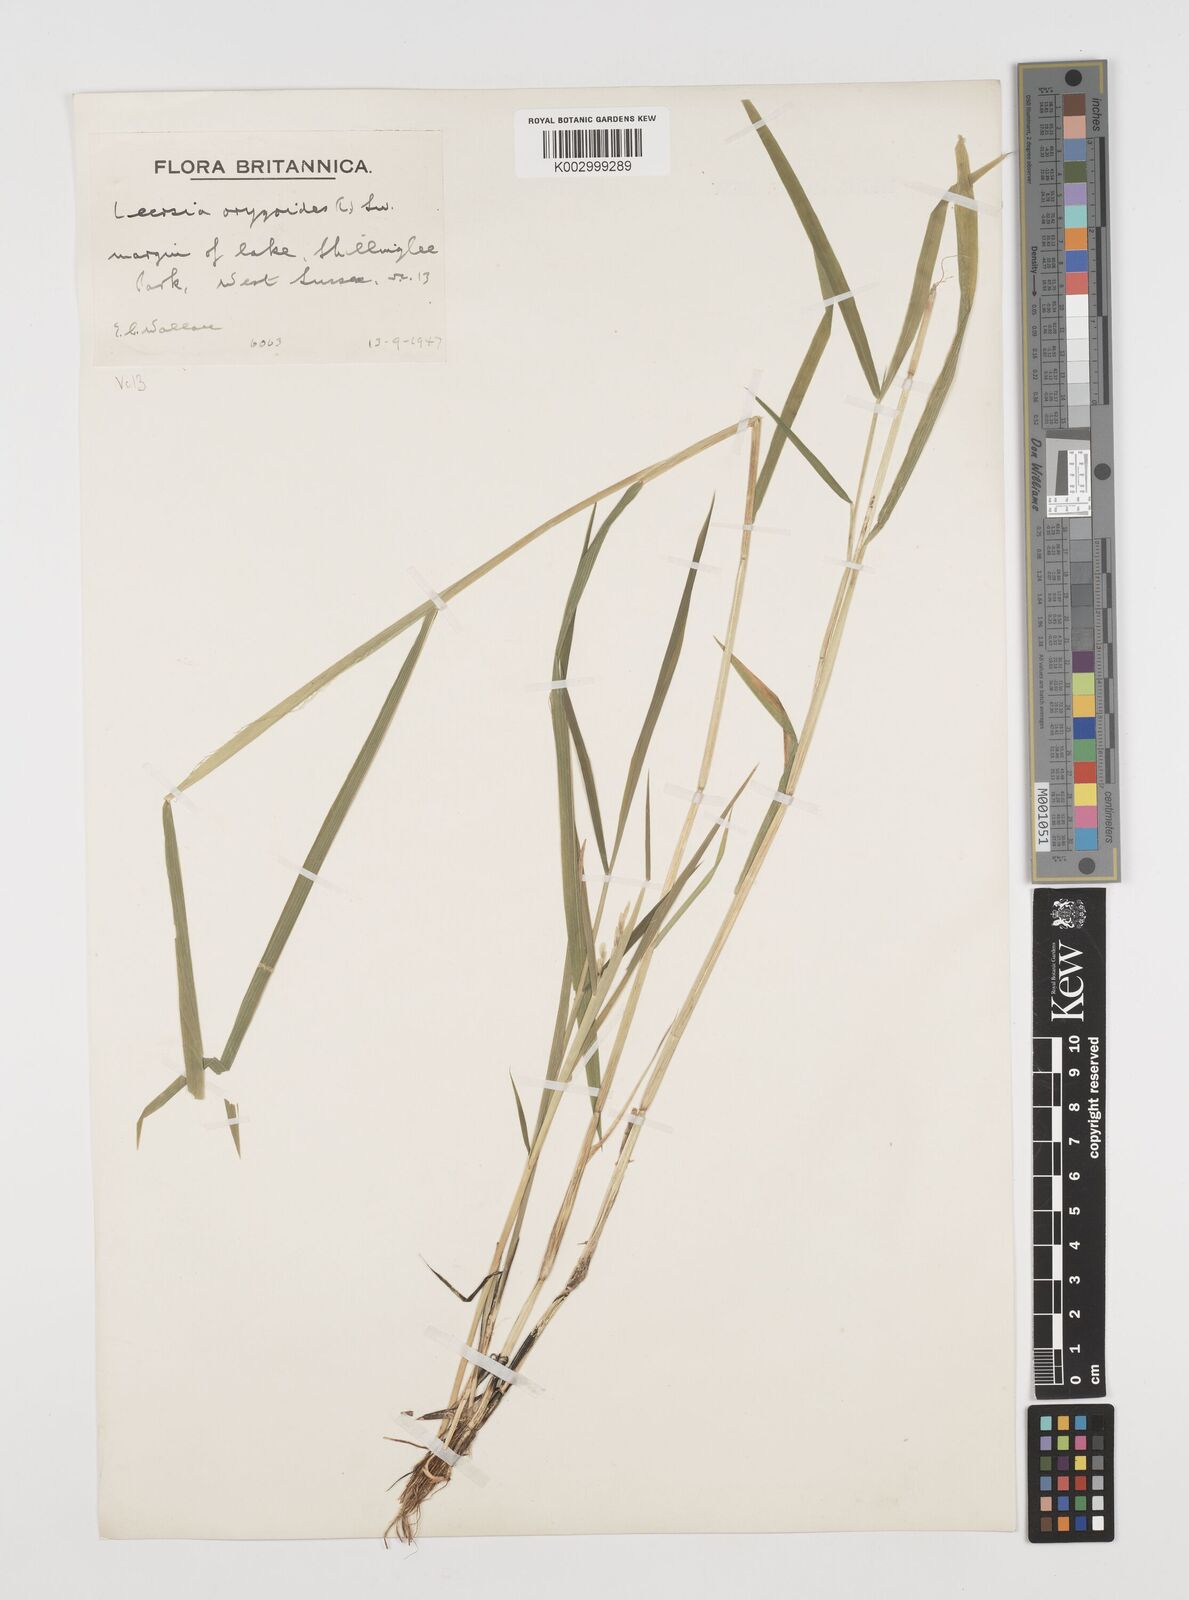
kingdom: Plantae
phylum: Tracheophyta
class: Liliopsida
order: Poales
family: Poaceae
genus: Leersia
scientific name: Leersia oryzoides
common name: Cut-grass
